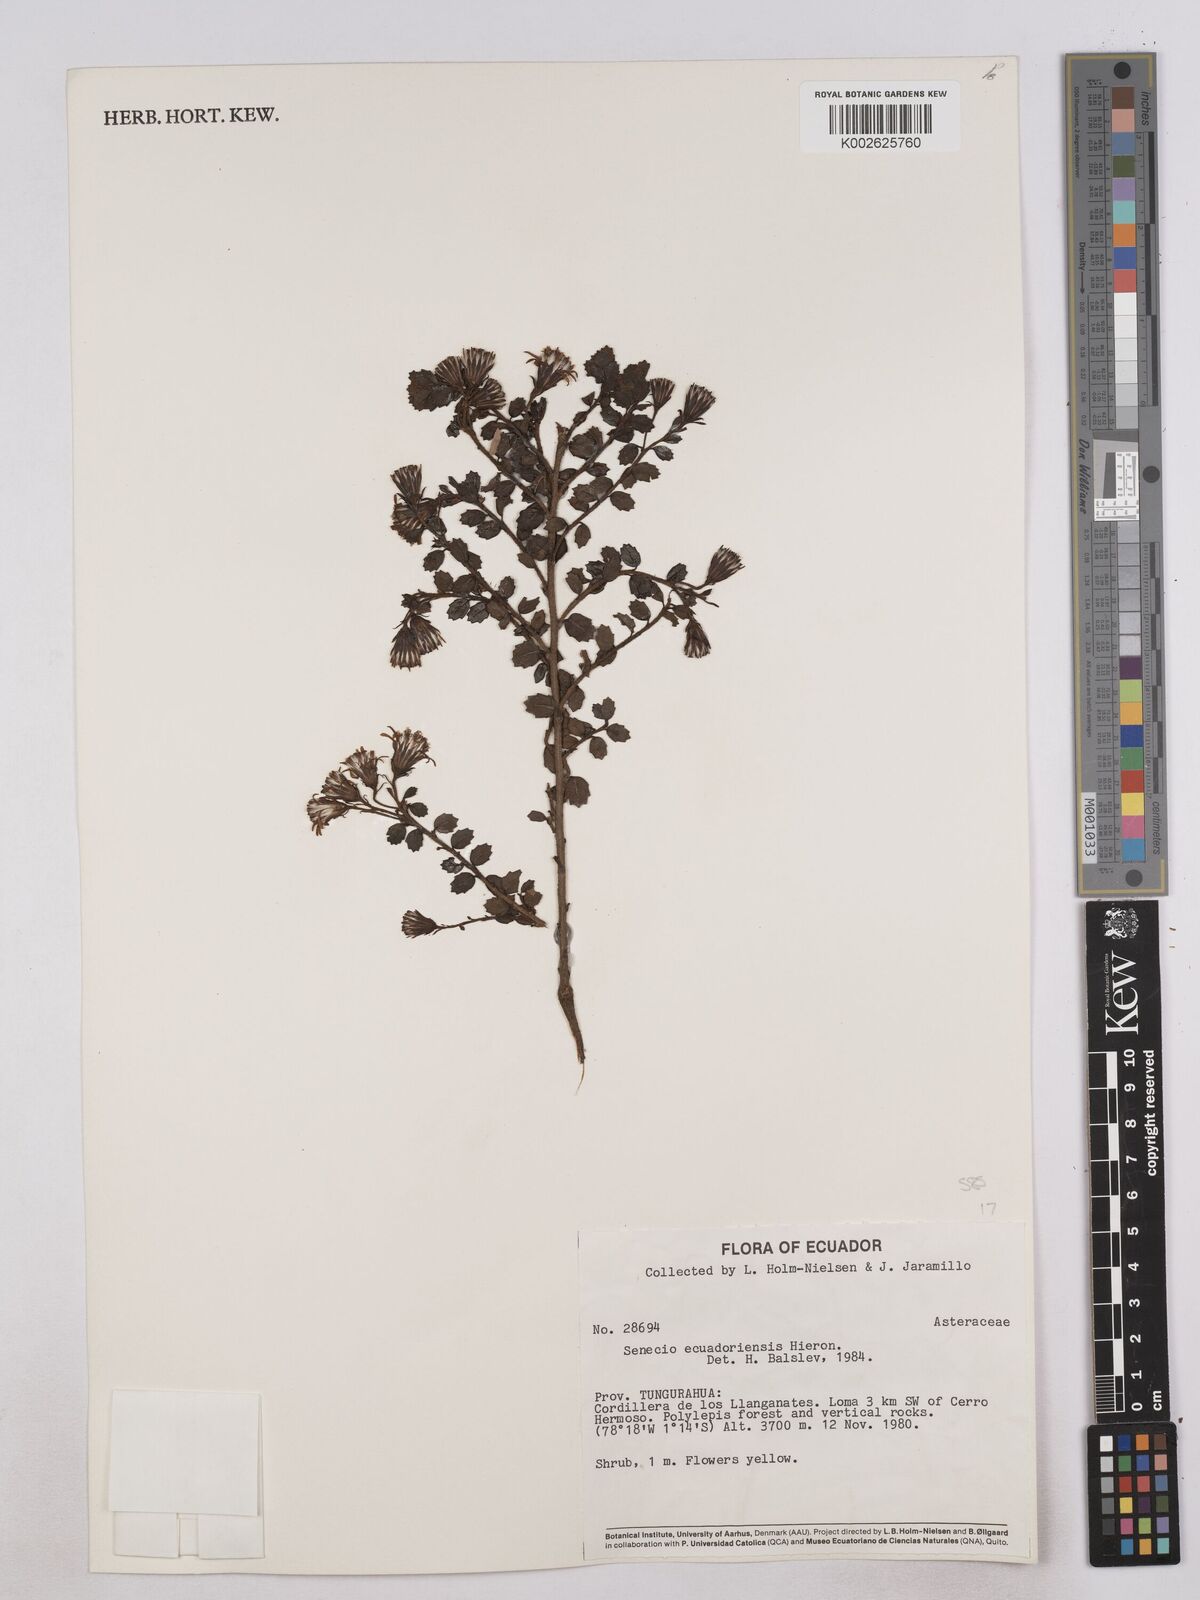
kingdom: Plantae
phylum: Tracheophyta
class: Magnoliopsida
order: Asterales
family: Asteraceae
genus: Monticalia
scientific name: Monticalia myrsinites
